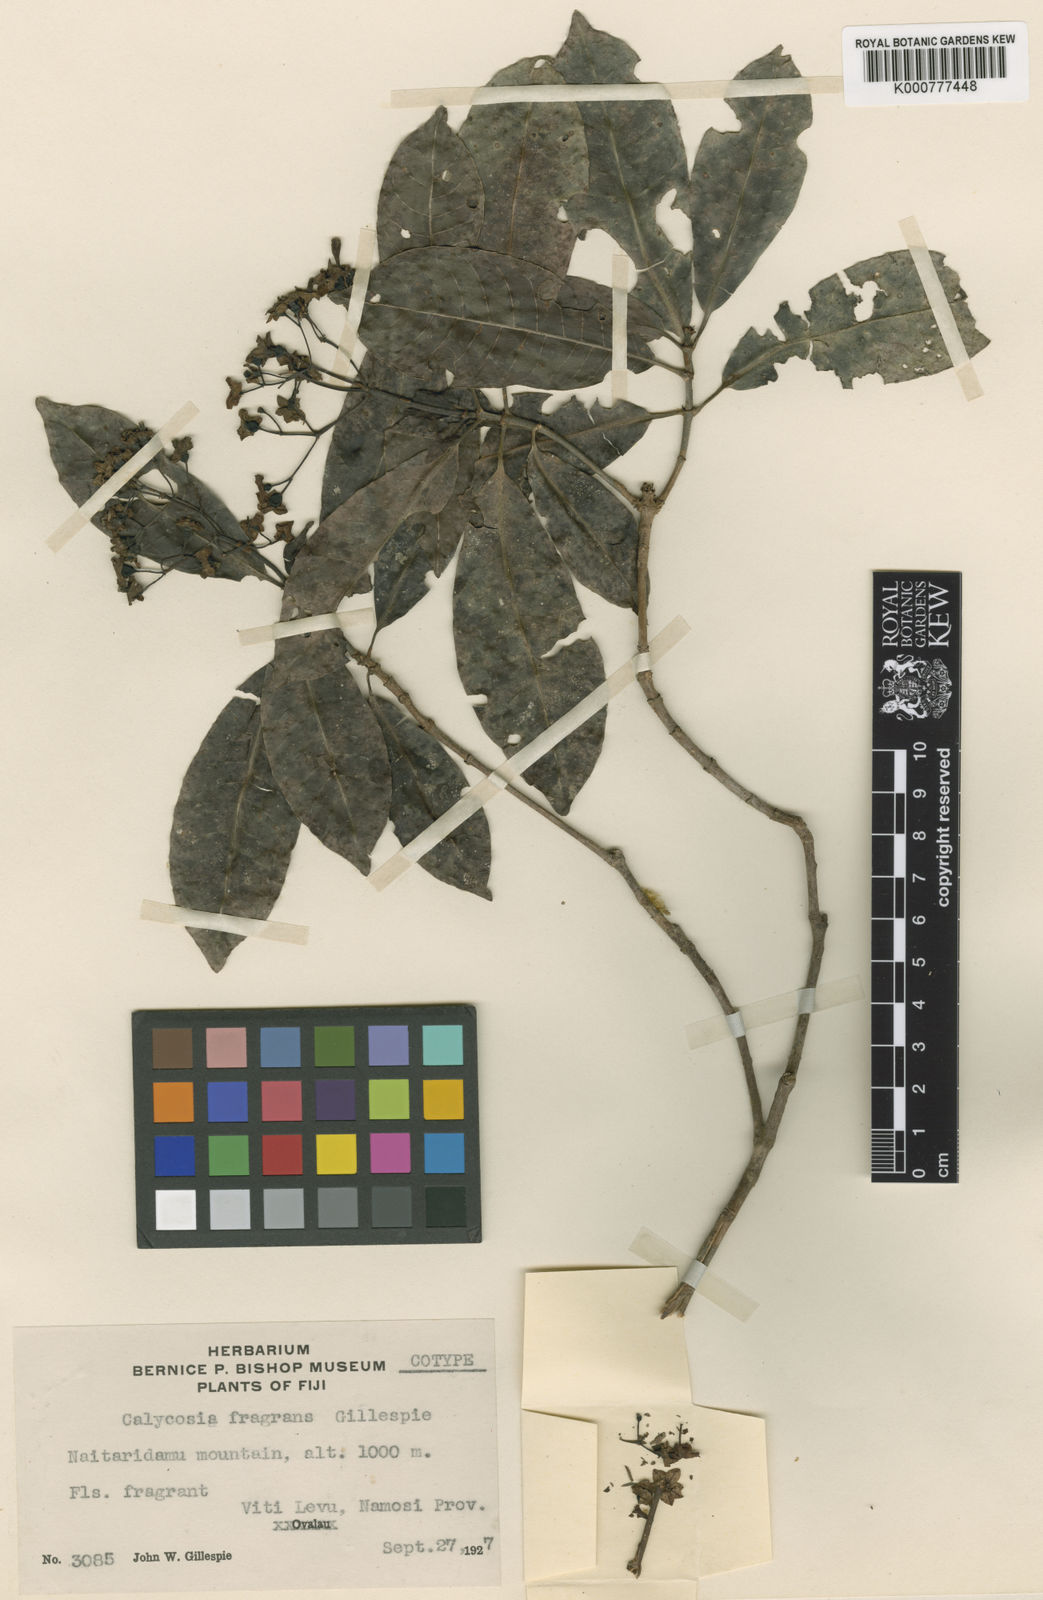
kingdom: Plantae
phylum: Tracheophyta
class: Magnoliopsida
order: Gentianales
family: Rubiaceae
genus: Psychotria
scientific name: Psychotria fragrans
